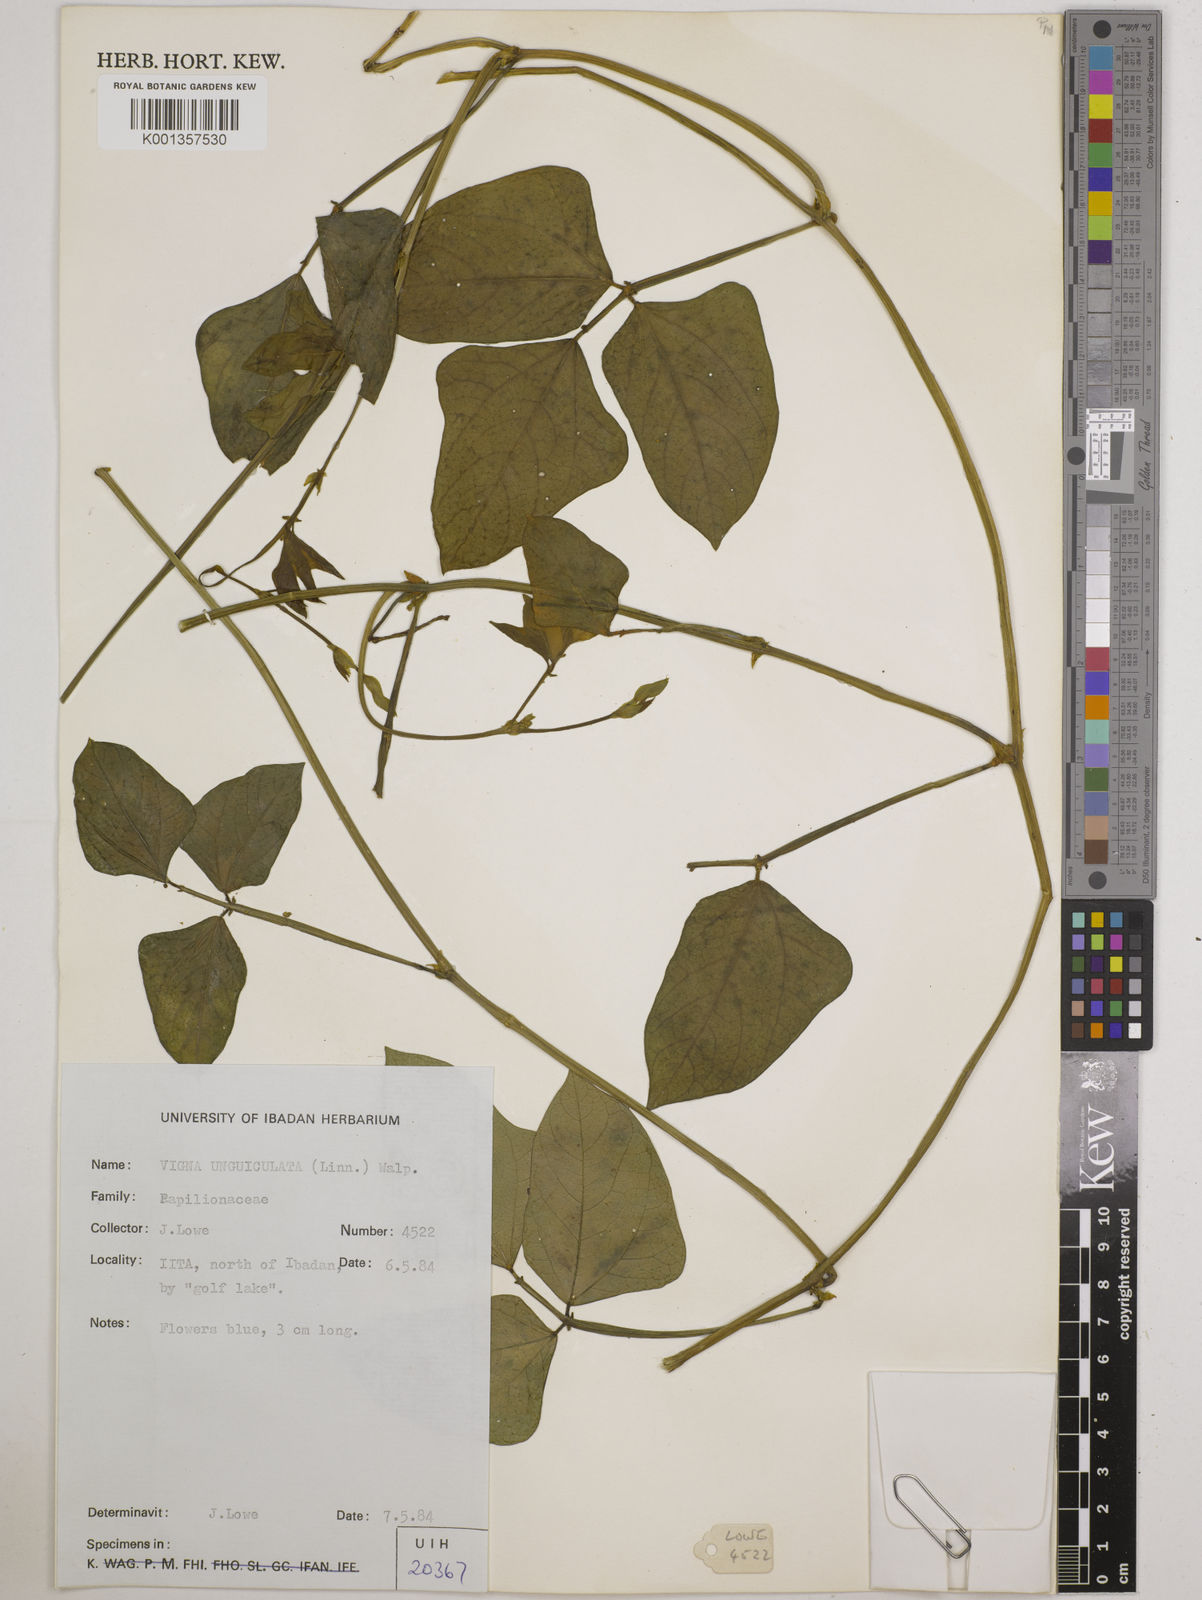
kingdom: Plantae
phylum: Tracheophyta
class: Magnoliopsida
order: Fabales
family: Fabaceae
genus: Vigna
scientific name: Vigna
